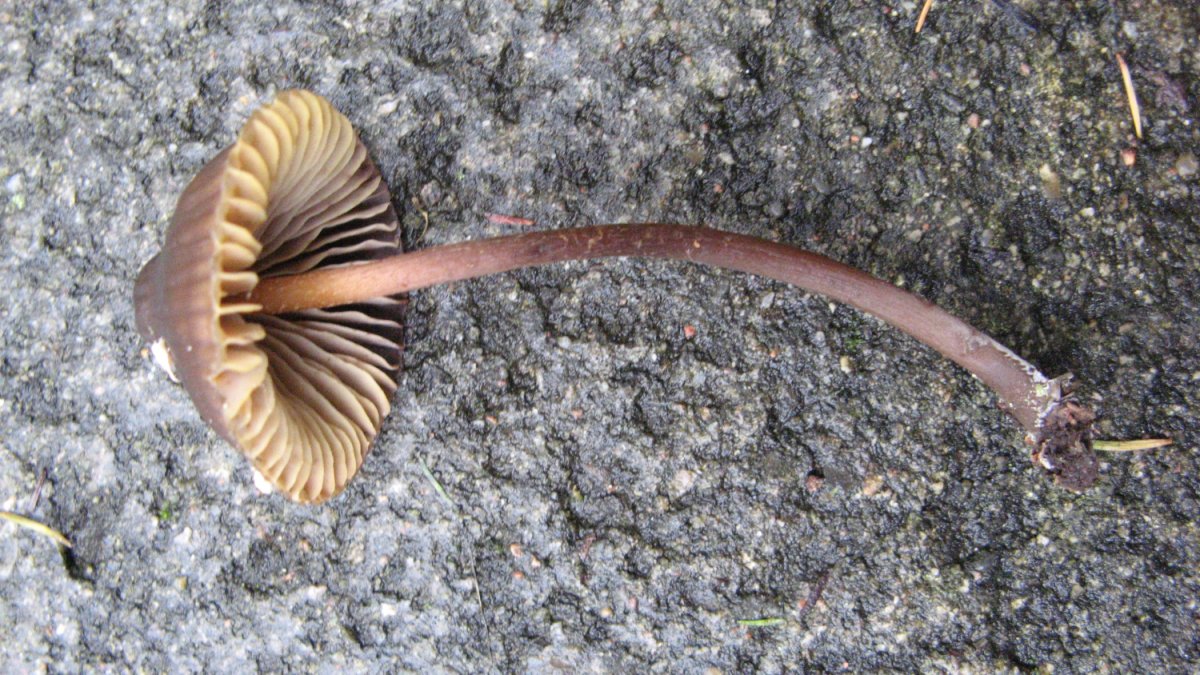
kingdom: Fungi
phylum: Basidiomycota
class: Agaricomycetes
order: Agaricales
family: Mycenaceae
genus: Mycena
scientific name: Mycena inclinata
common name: nikkende huesvamp
